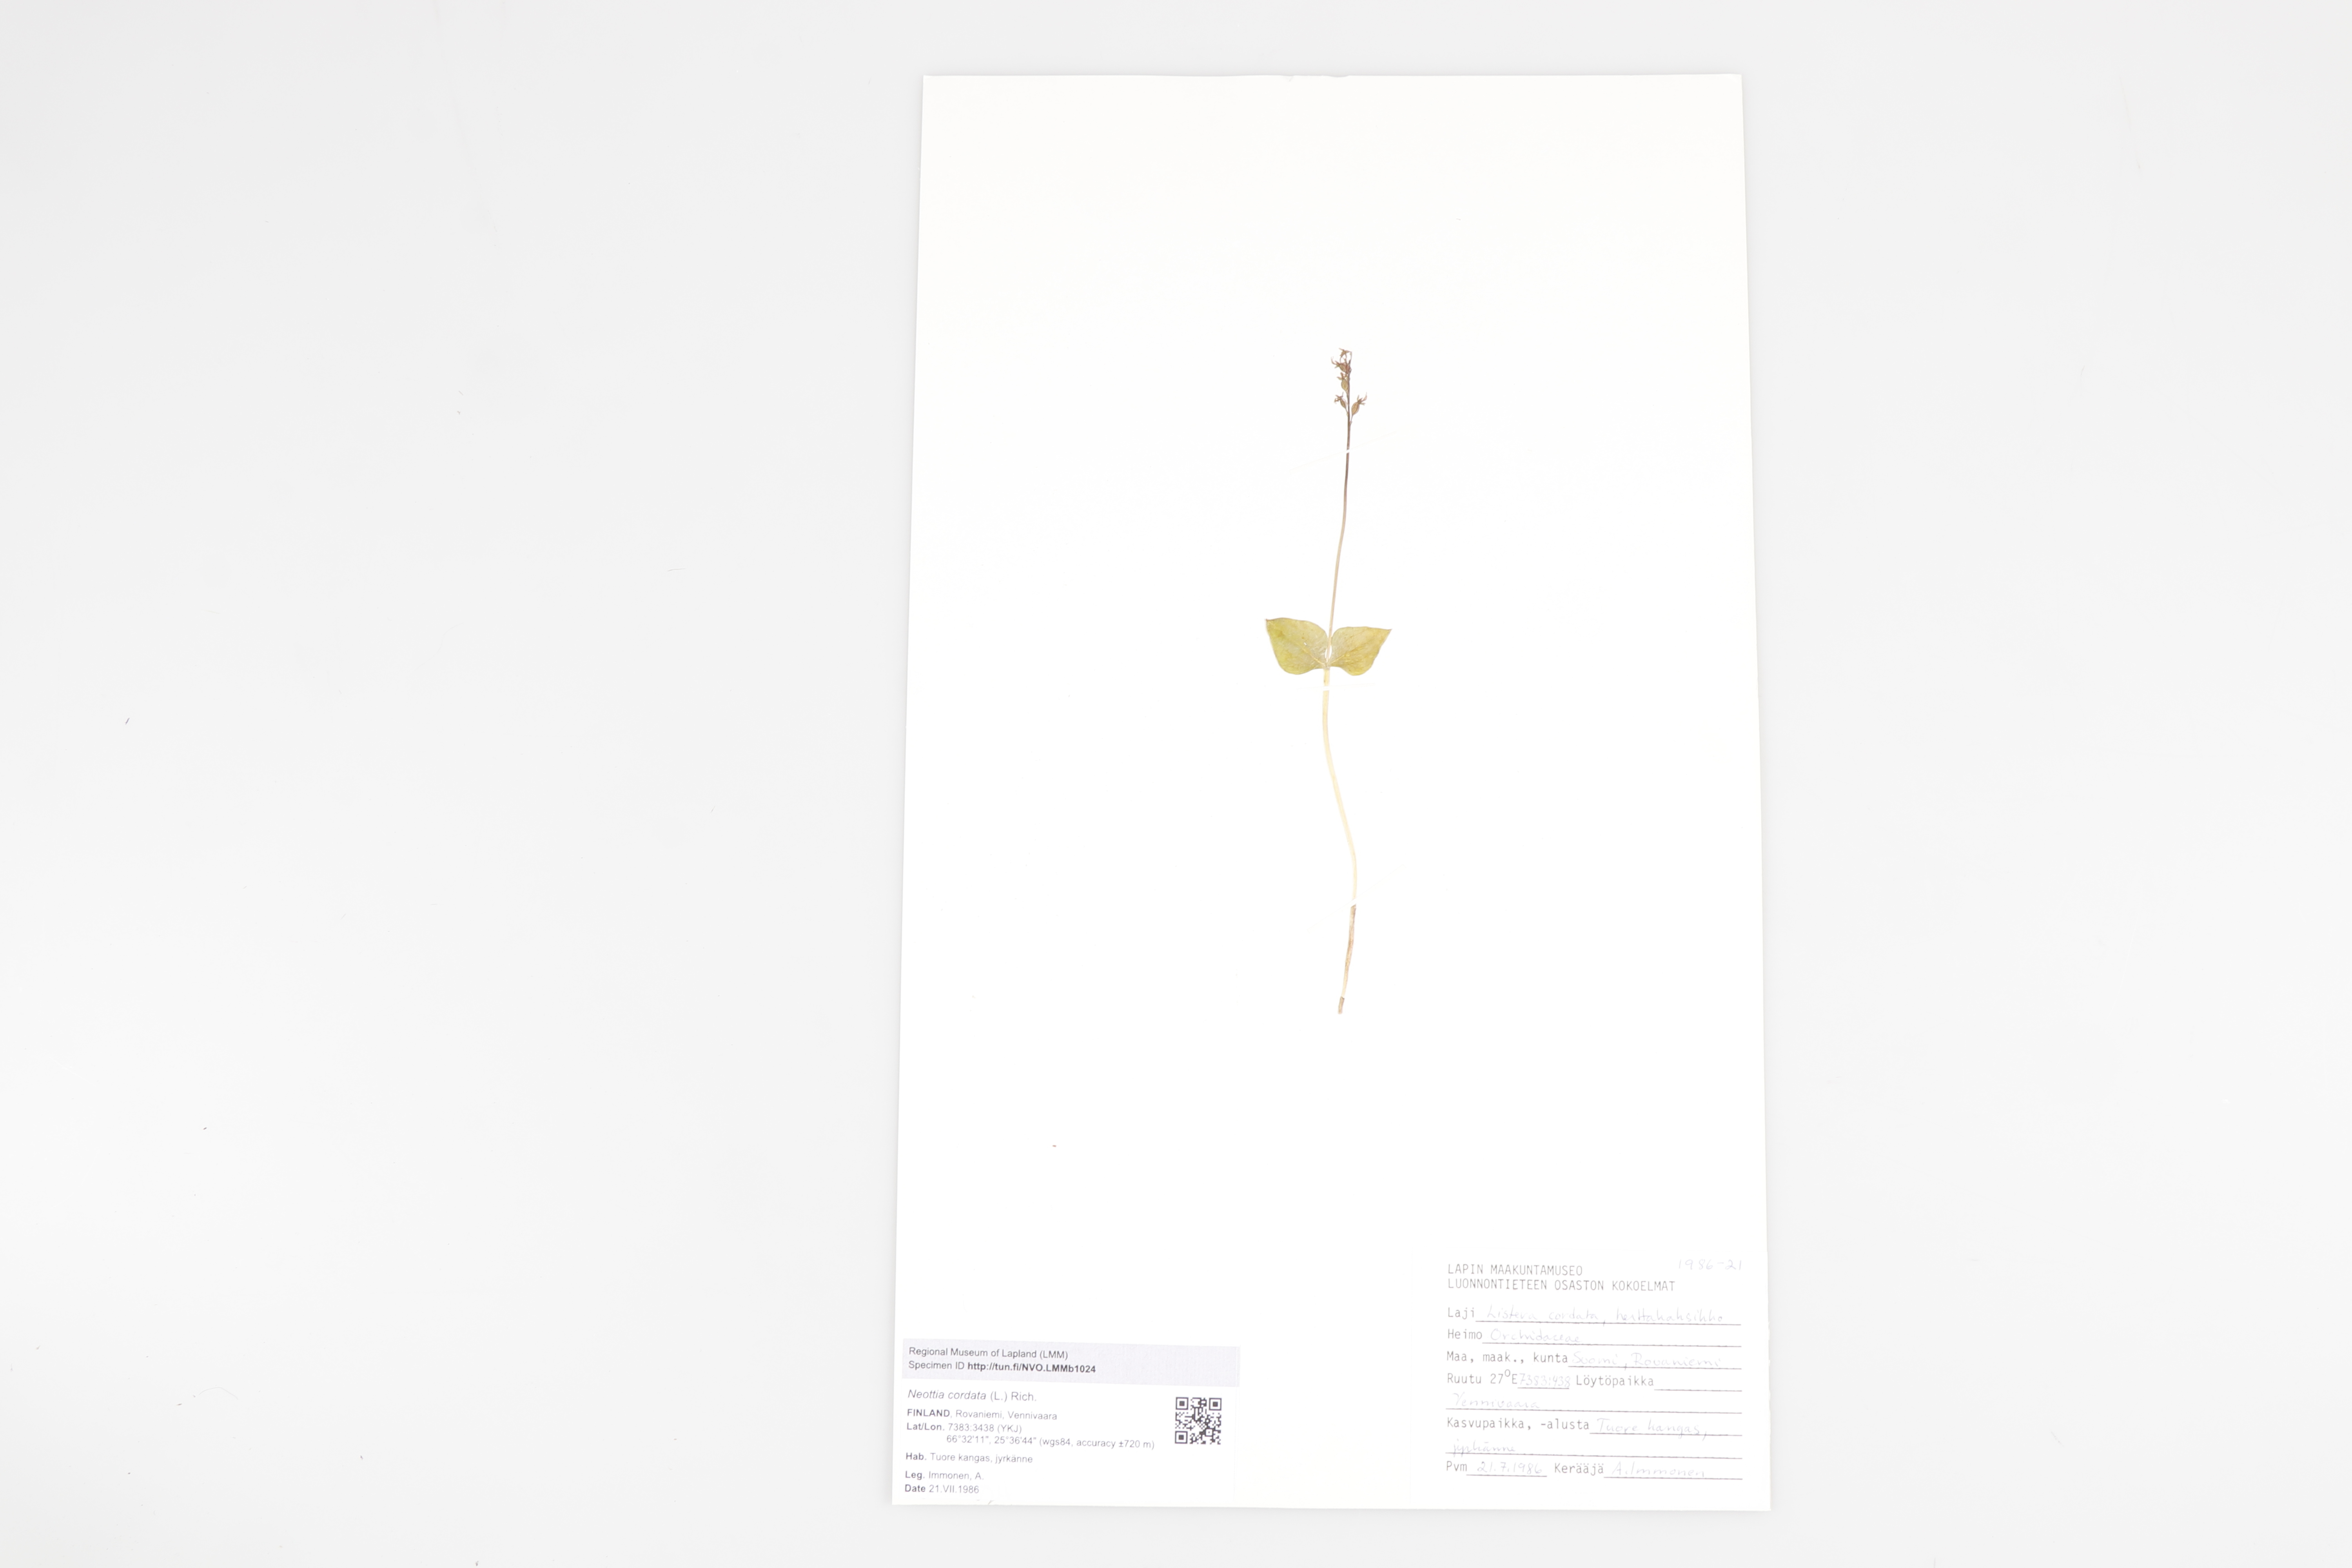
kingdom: Plantae
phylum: Tracheophyta
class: Liliopsida
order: Asparagales
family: Orchidaceae
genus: Neottia
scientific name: Neottia cordata
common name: Lesser twayblade
